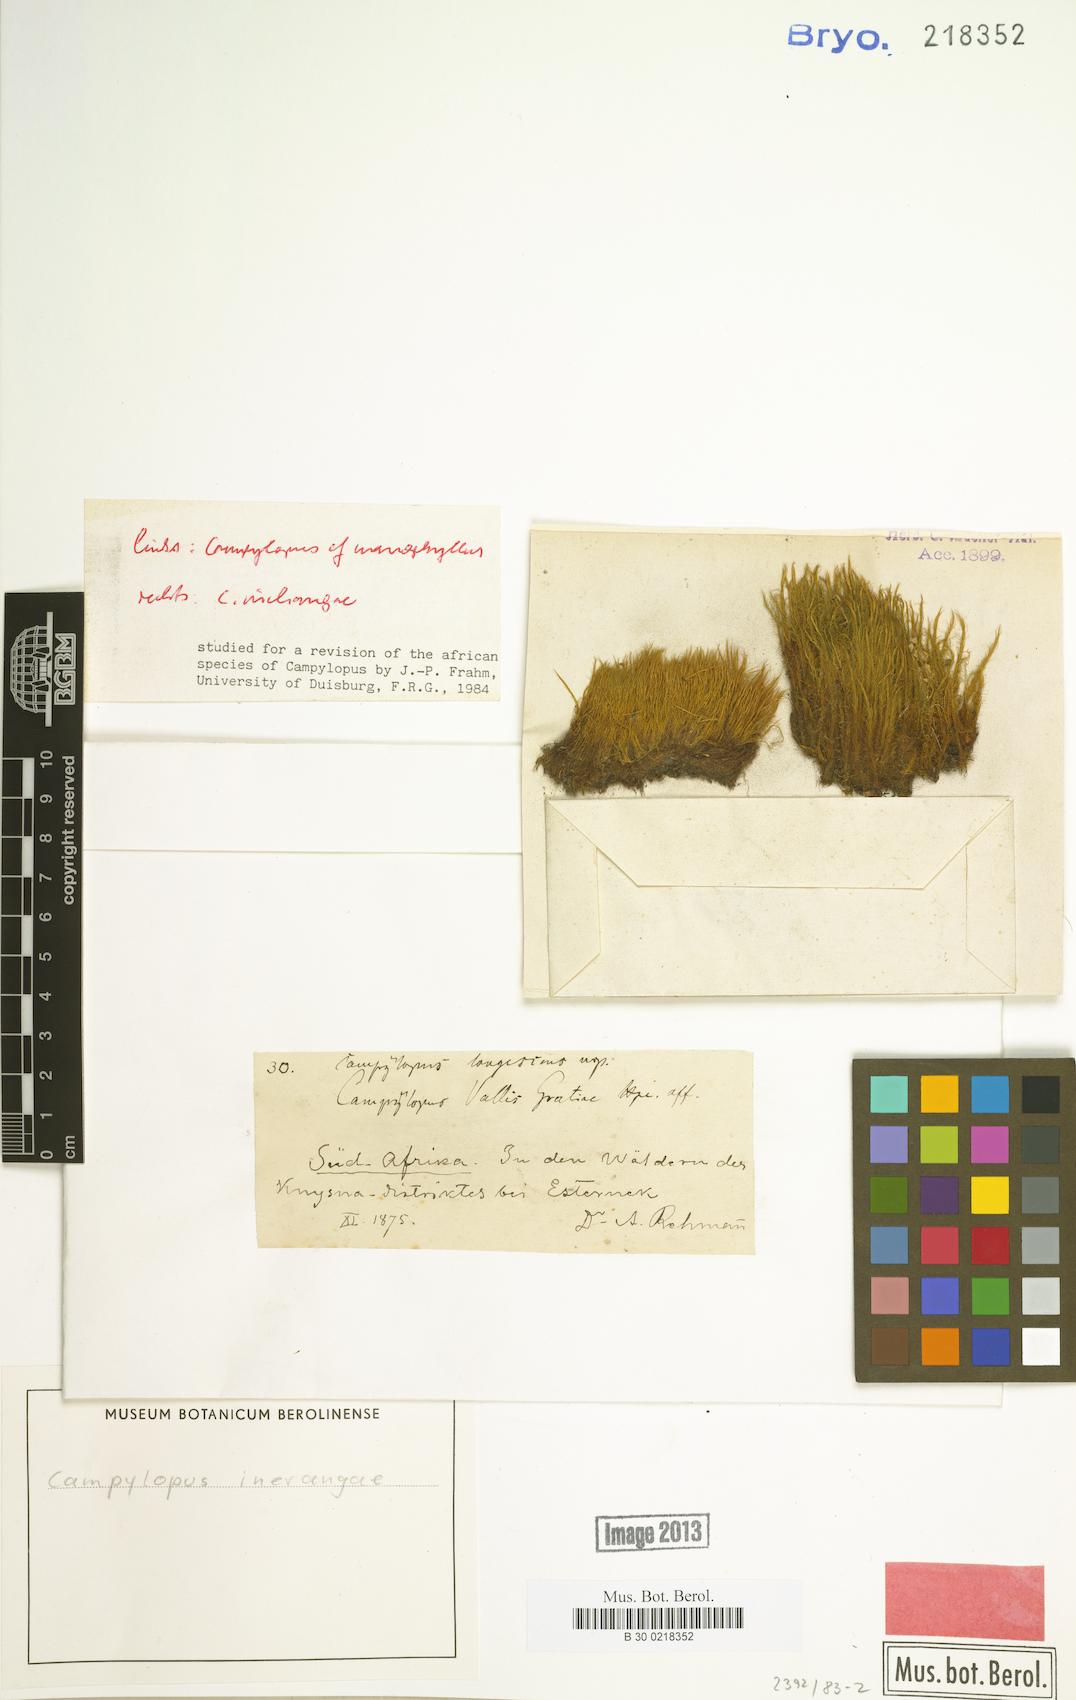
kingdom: Plantae
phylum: Bryophyta
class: Bryopsida
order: Dicranales
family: Leucobryaceae
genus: Campylopus
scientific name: Campylopus robillardii
